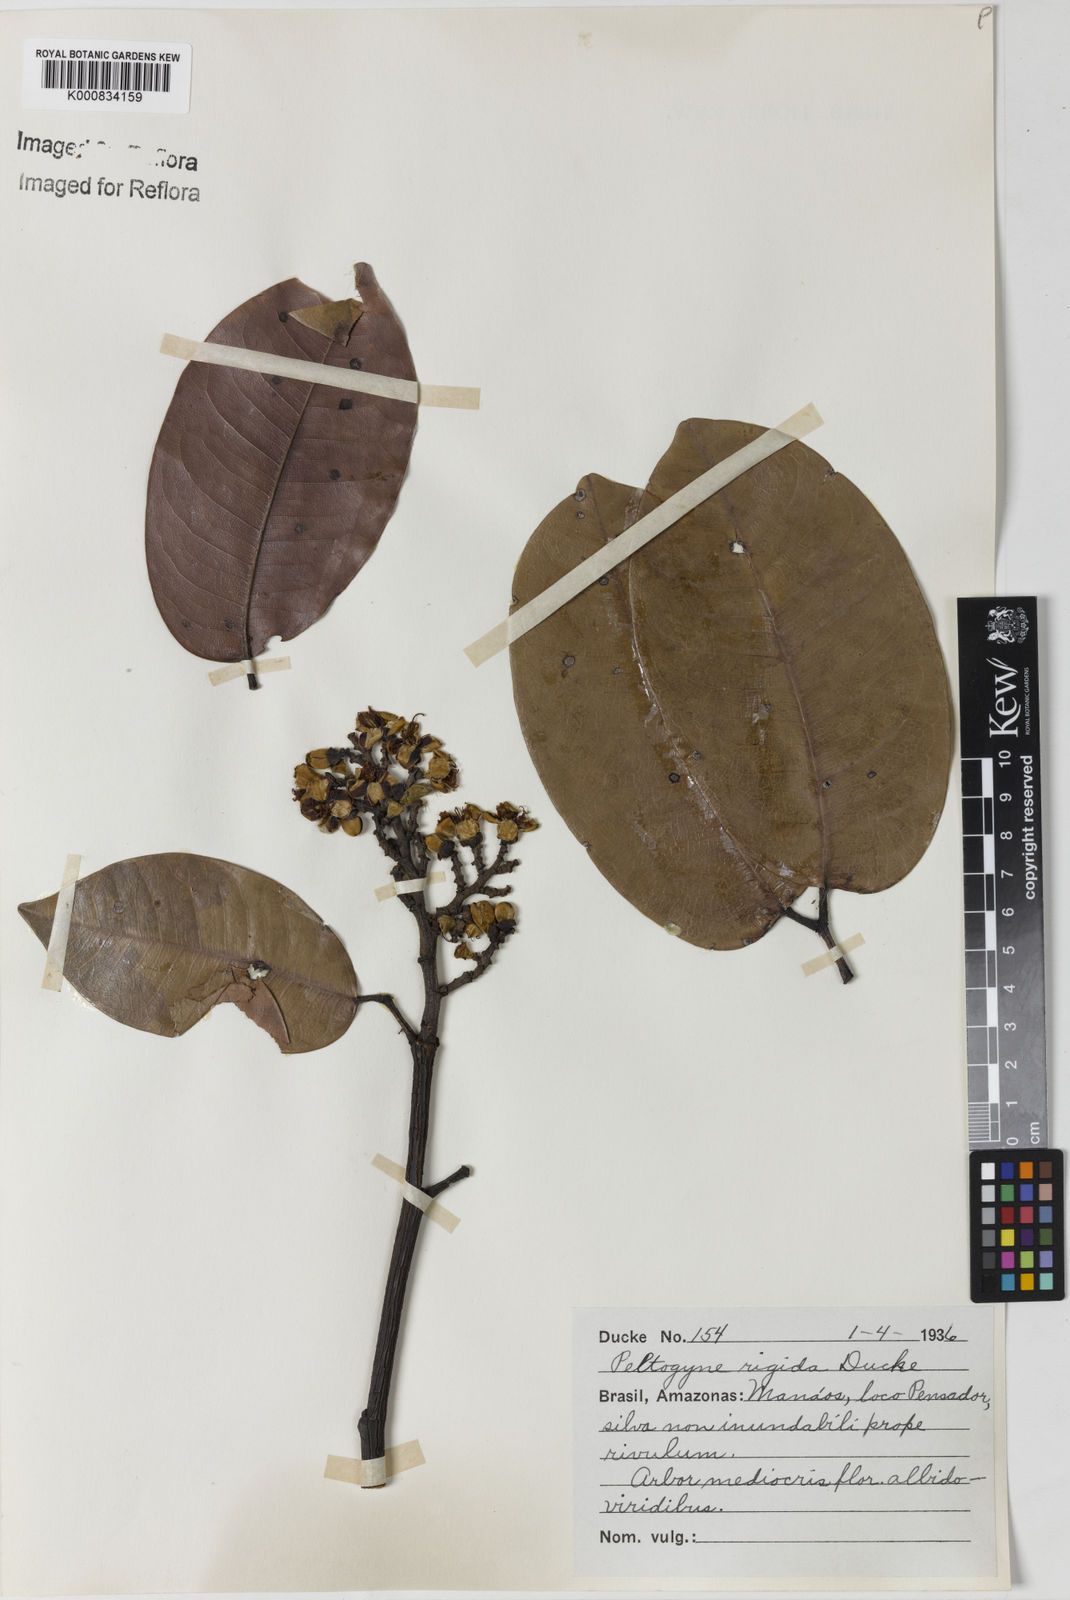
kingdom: Plantae
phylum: Tracheophyta
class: Magnoliopsida
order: Fabales
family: Fabaceae
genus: Peltogyne
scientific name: Peltogyne campestris
